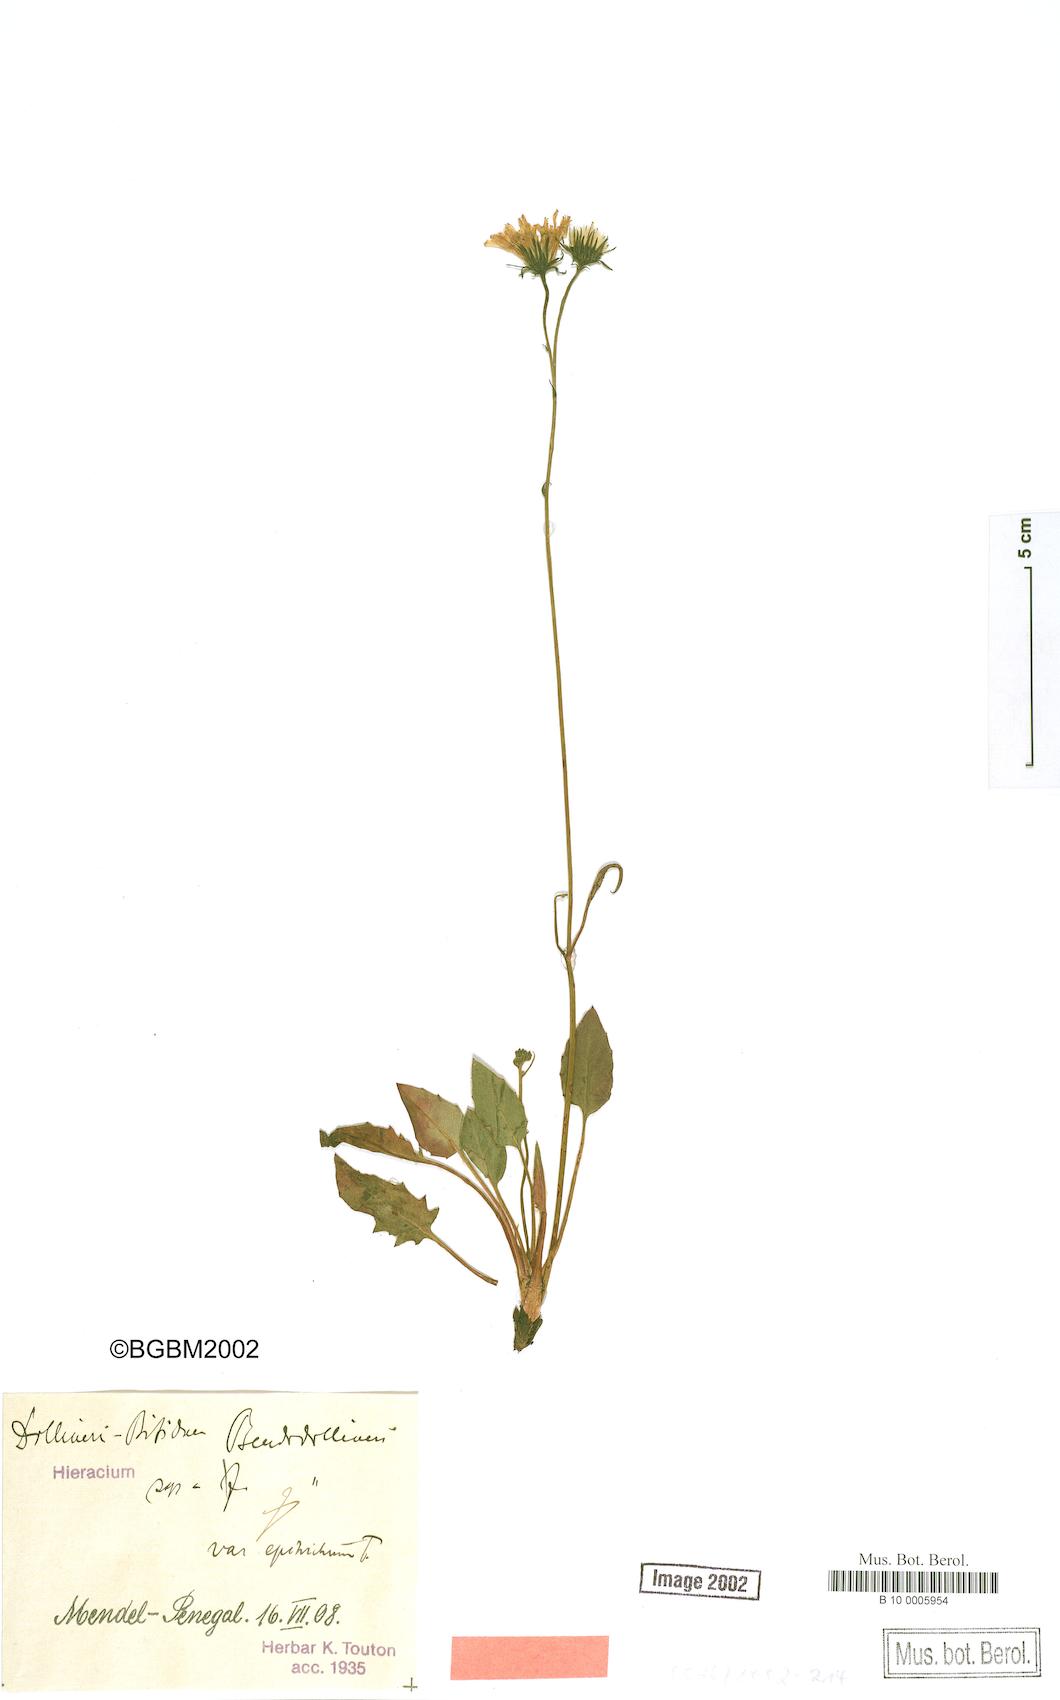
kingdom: Plantae
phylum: Tracheophyta
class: Magnoliopsida
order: Asterales
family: Asteraceae
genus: Hieracium
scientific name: Hieracium bifidum
